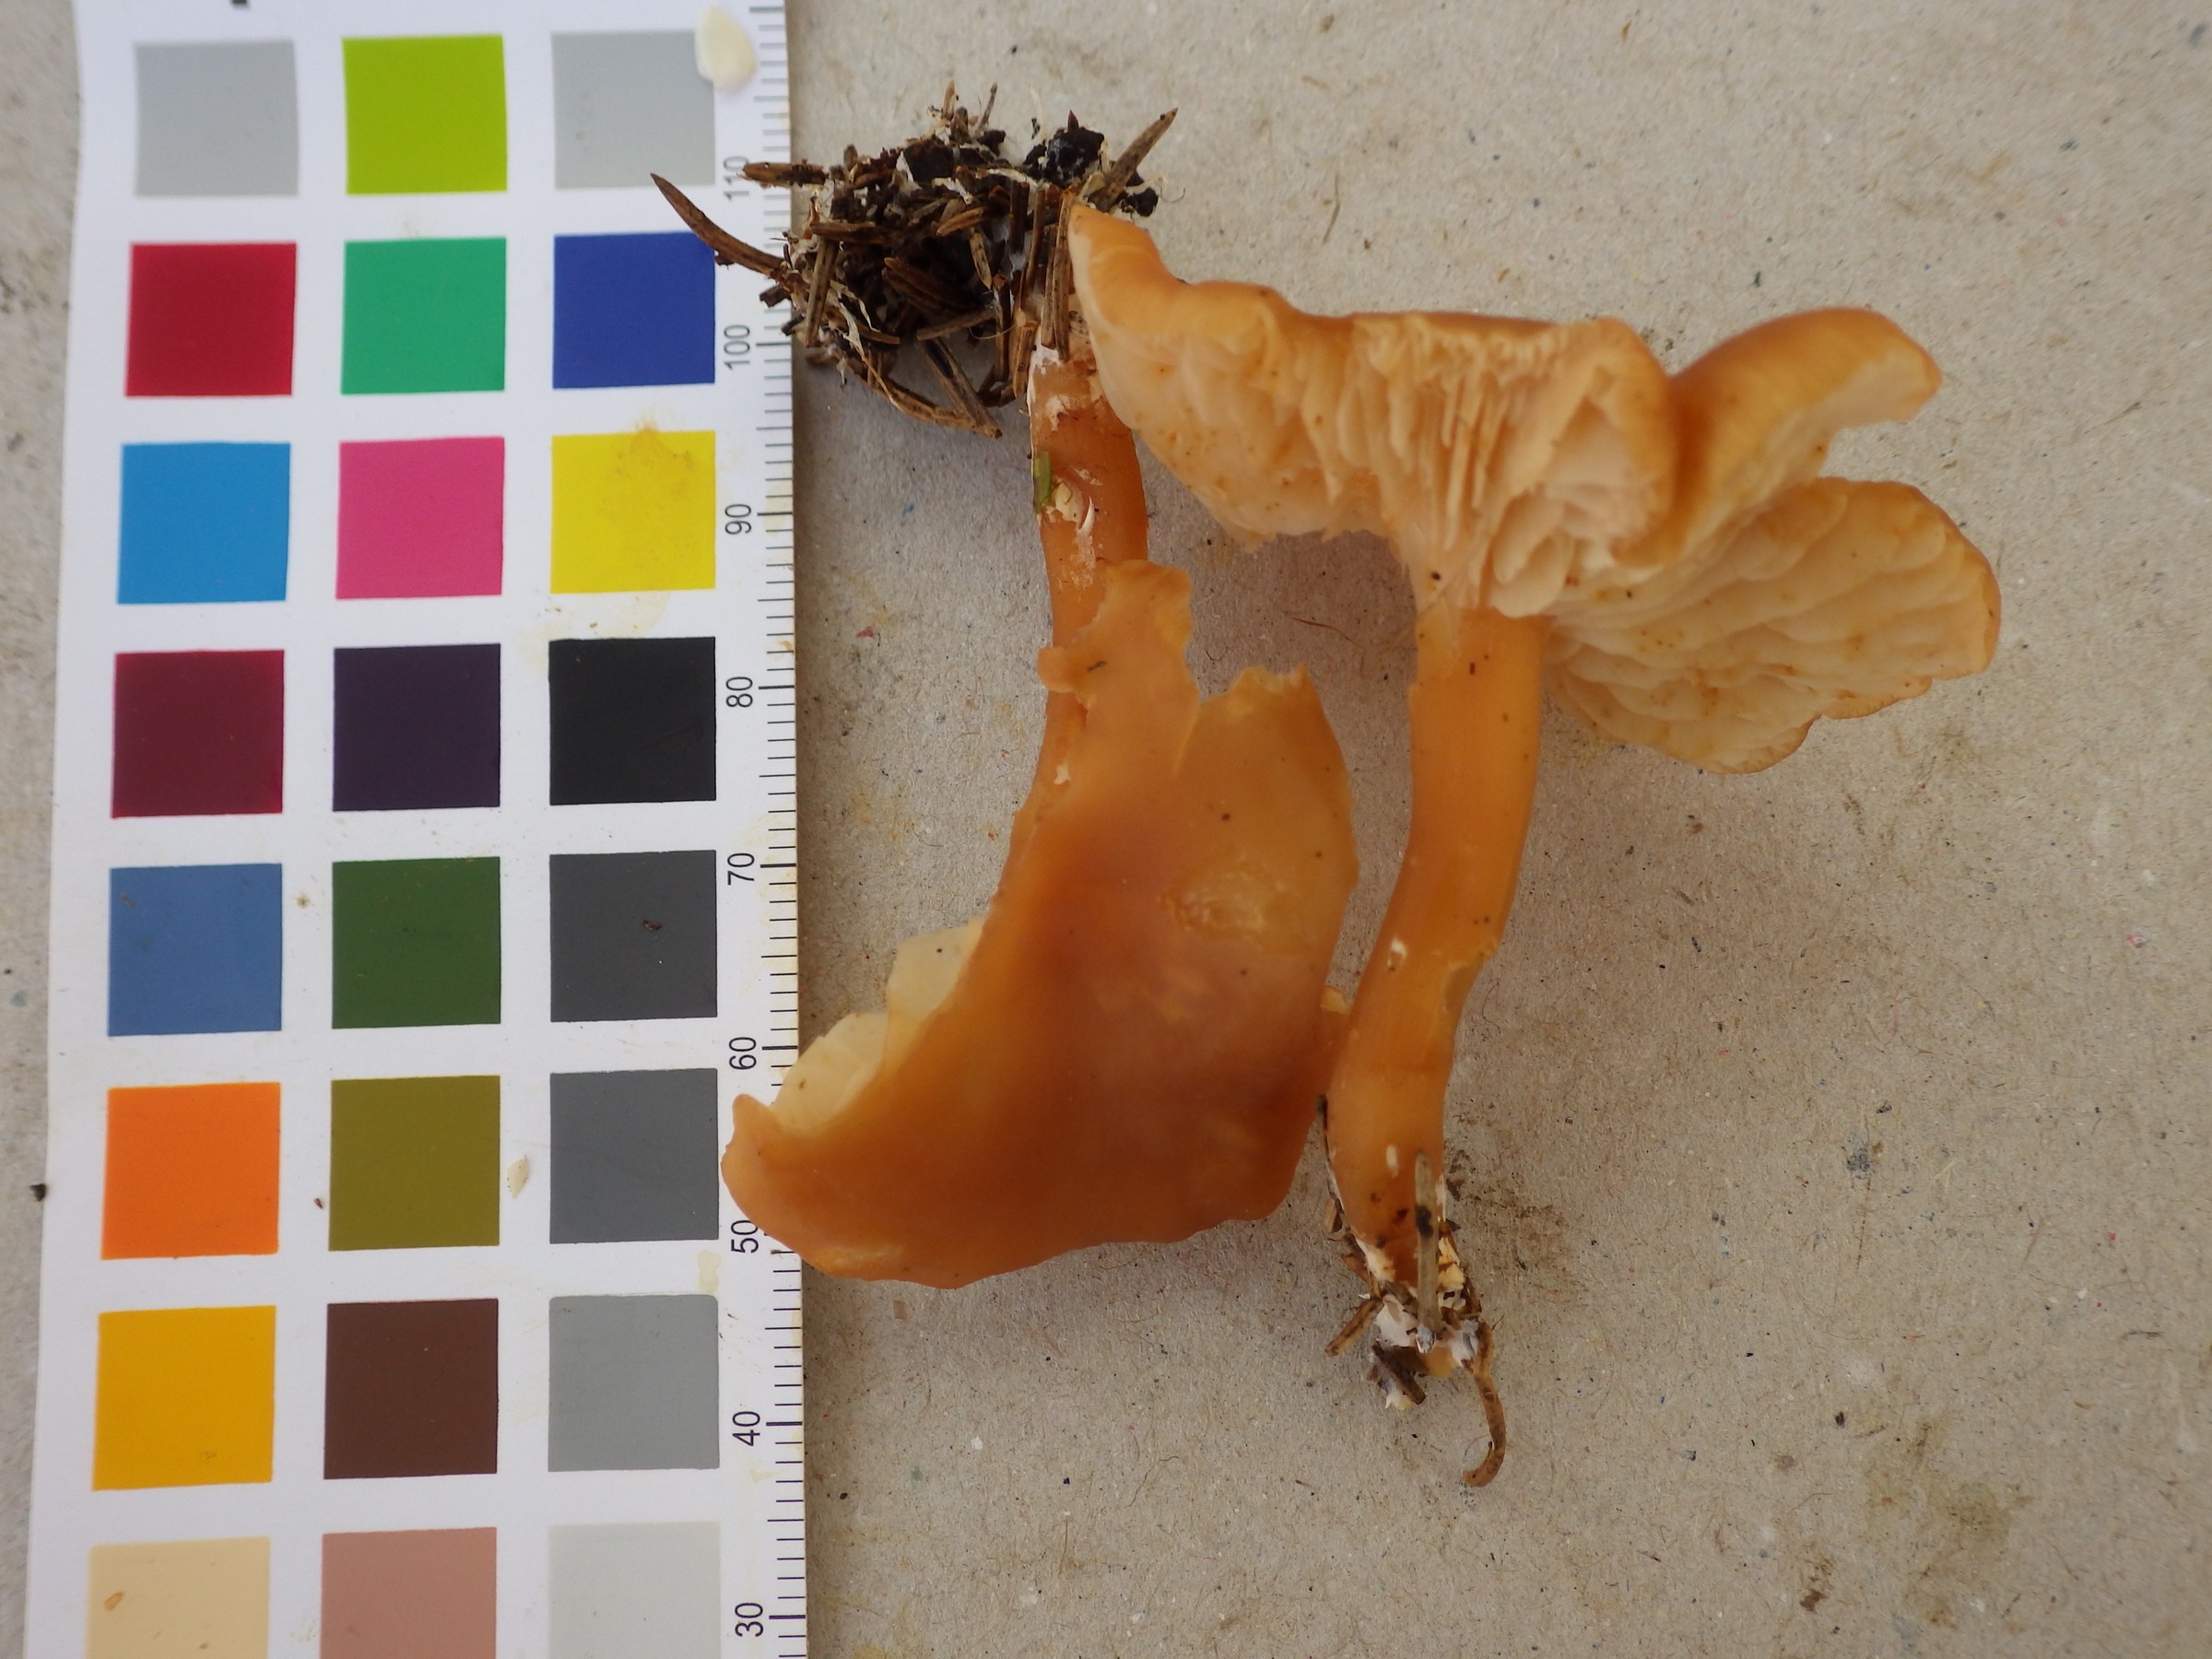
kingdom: Fungi
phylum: Basidiomycota
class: Agaricomycetes
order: Agaricales
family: Entolomataceae
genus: Rhodophana
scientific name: Rhodophana nitellina
